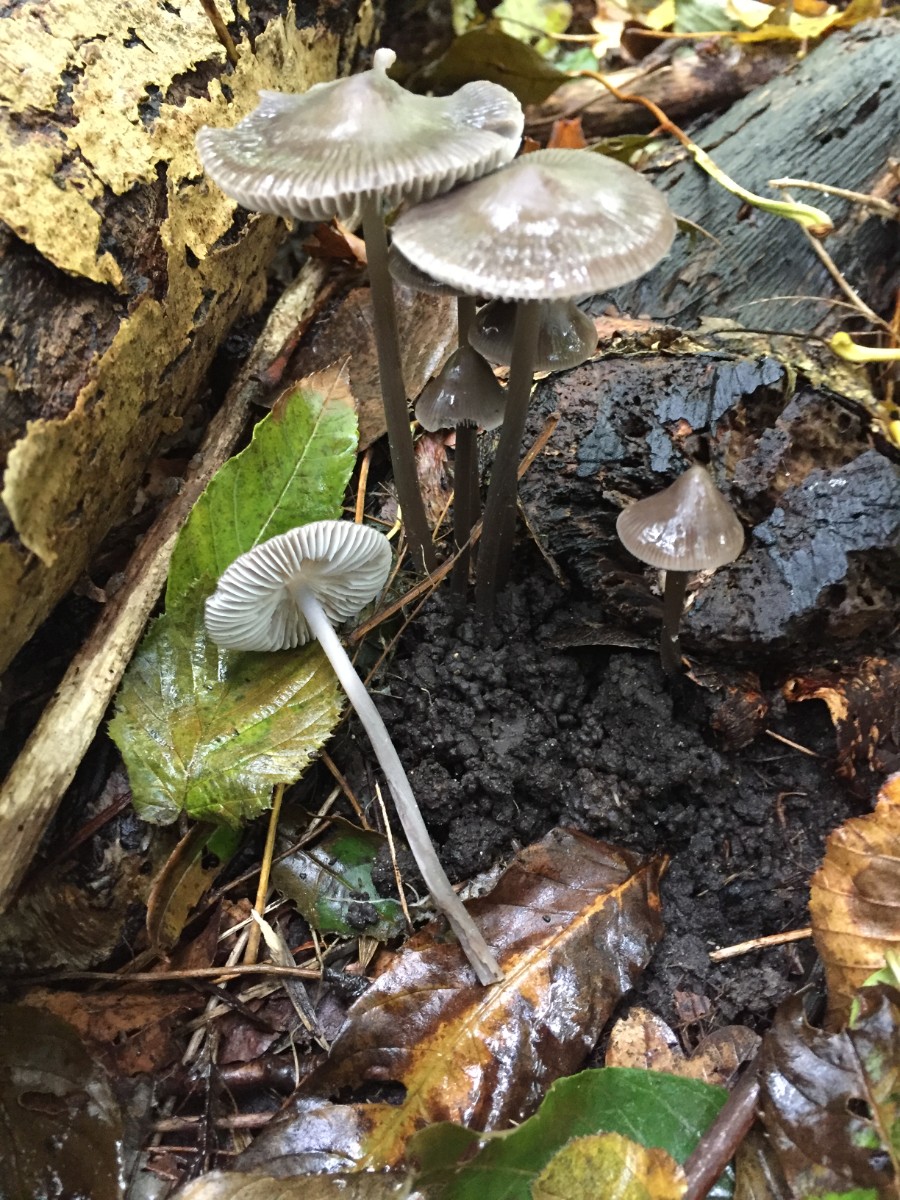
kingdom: Fungi
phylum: Basidiomycota
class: Agaricomycetes
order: Agaricales
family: Mycenaceae
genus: Mycena
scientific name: Mycena polygramma
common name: mangestribet huesvamp
